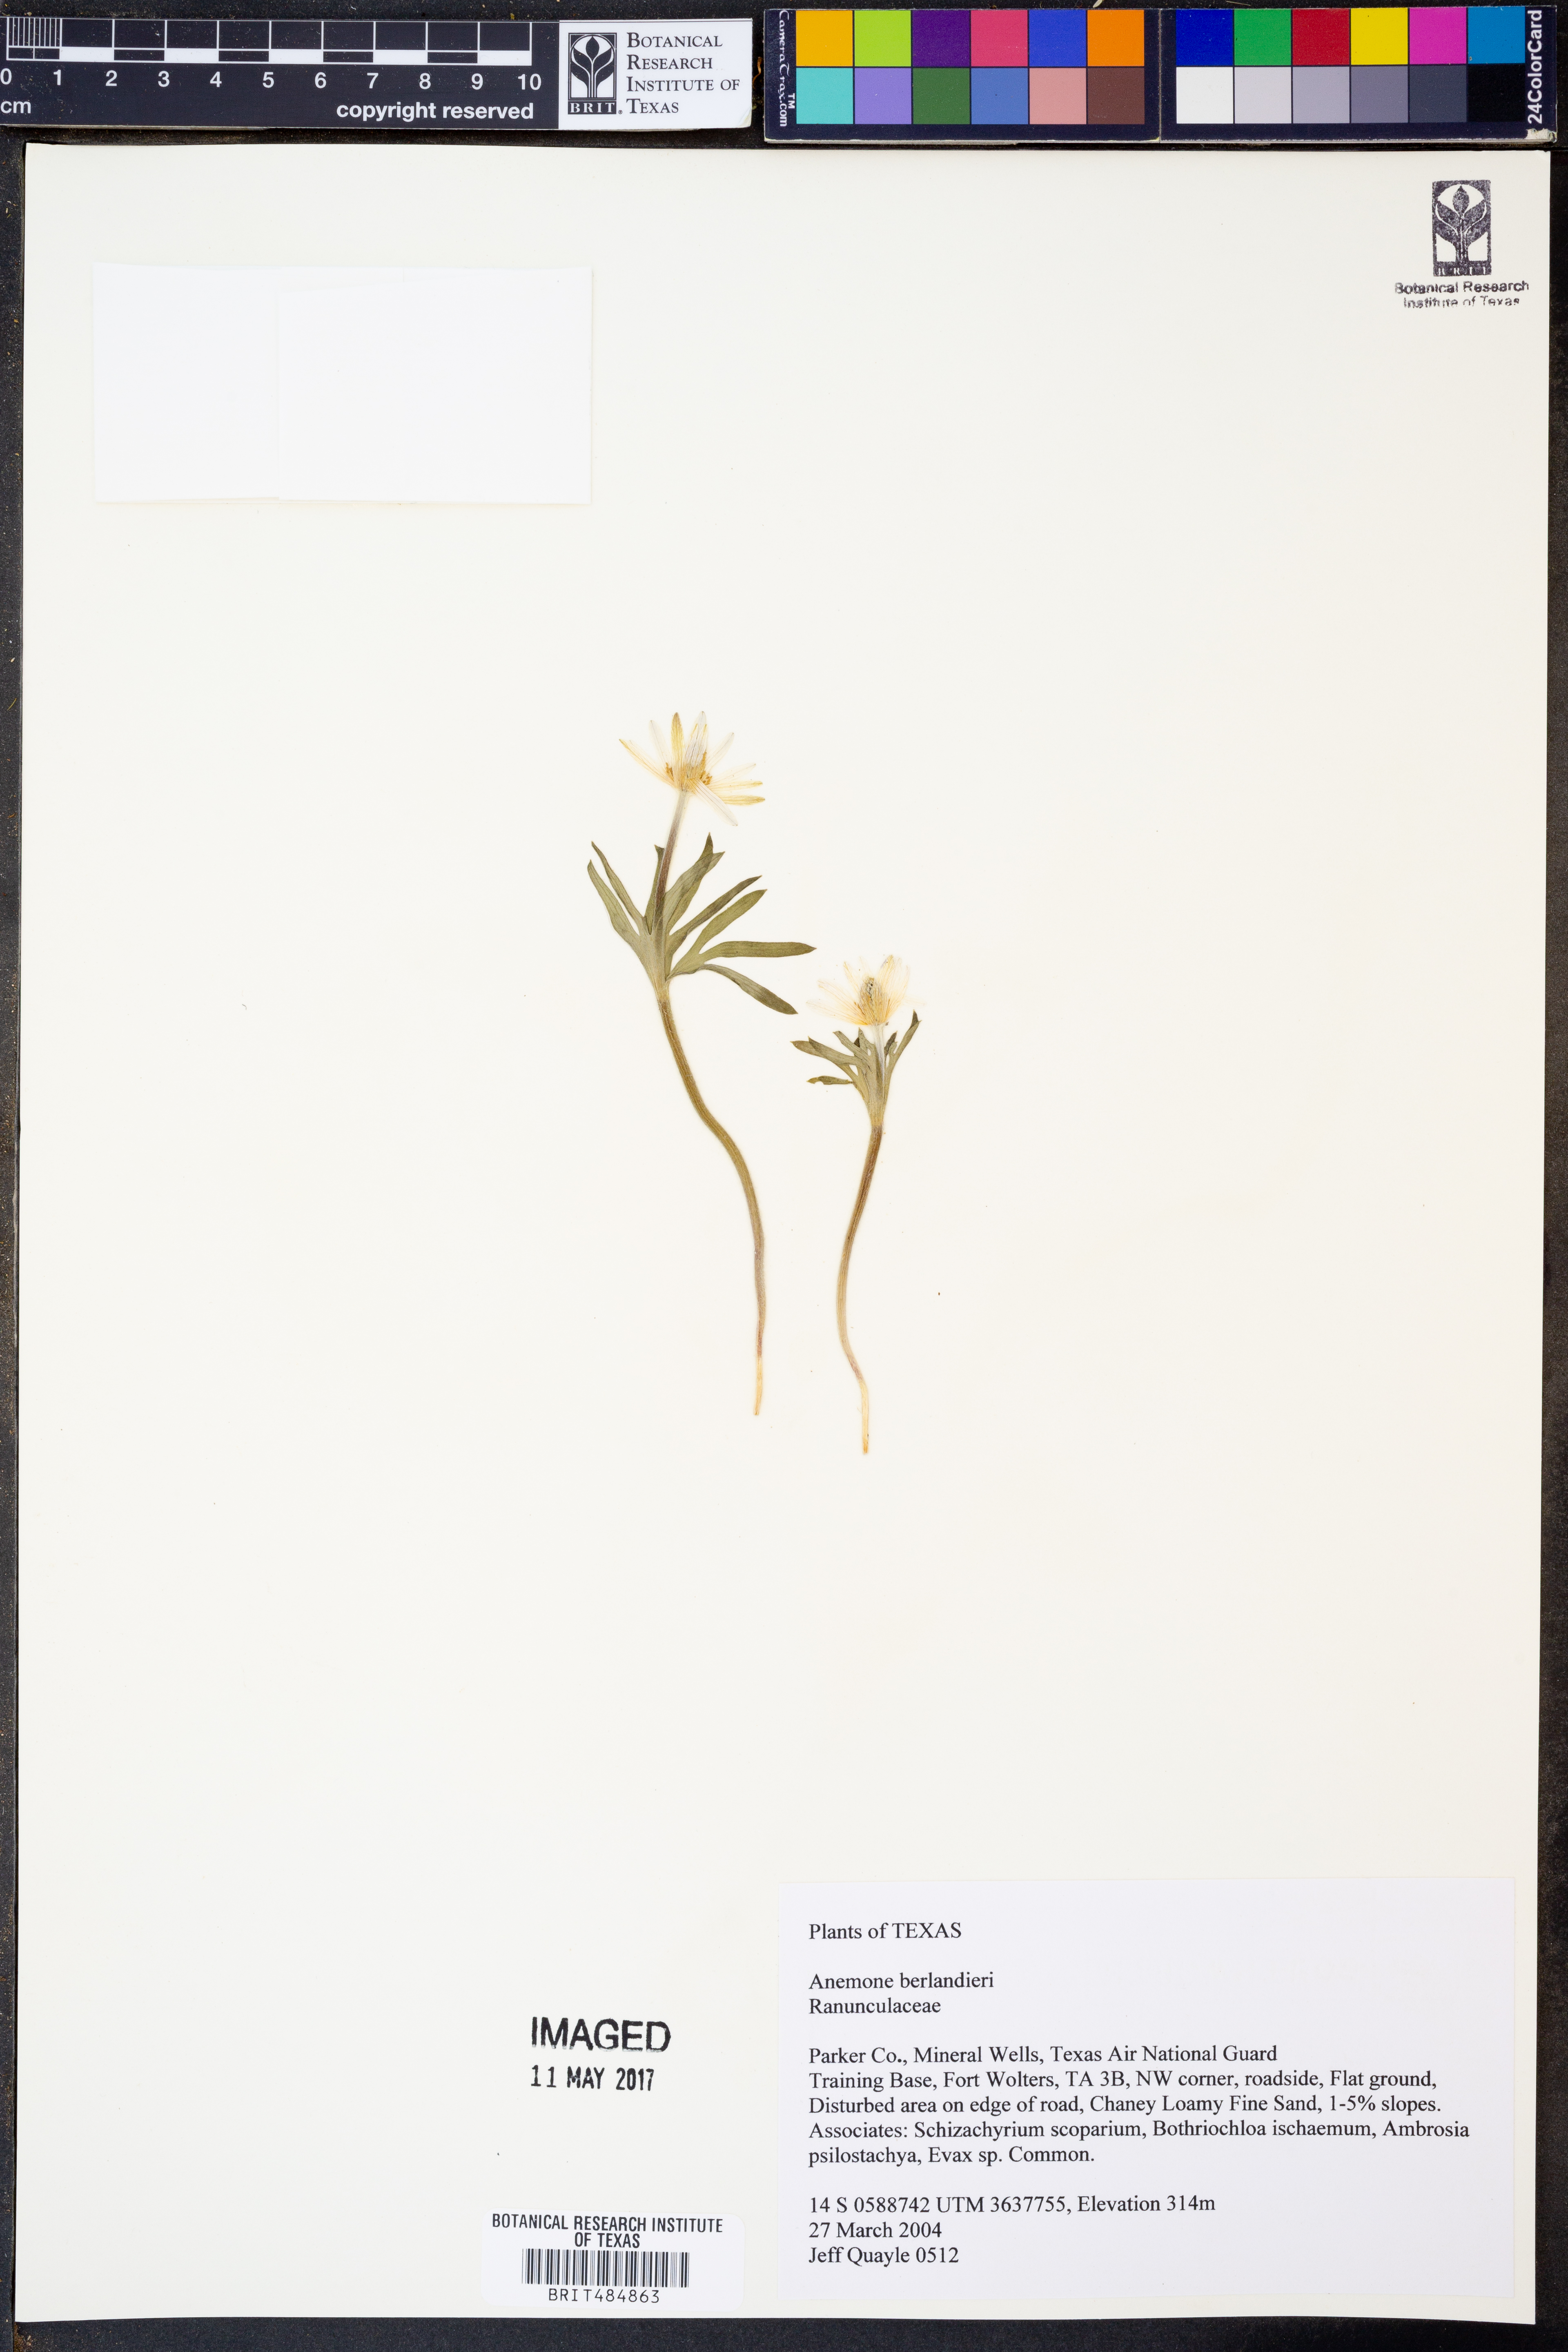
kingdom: Plantae
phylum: Tracheophyta
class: Magnoliopsida
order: Ranunculales
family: Ranunculaceae
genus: Anemone
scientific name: Anemone berlandieri
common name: Ten-petal anemone
